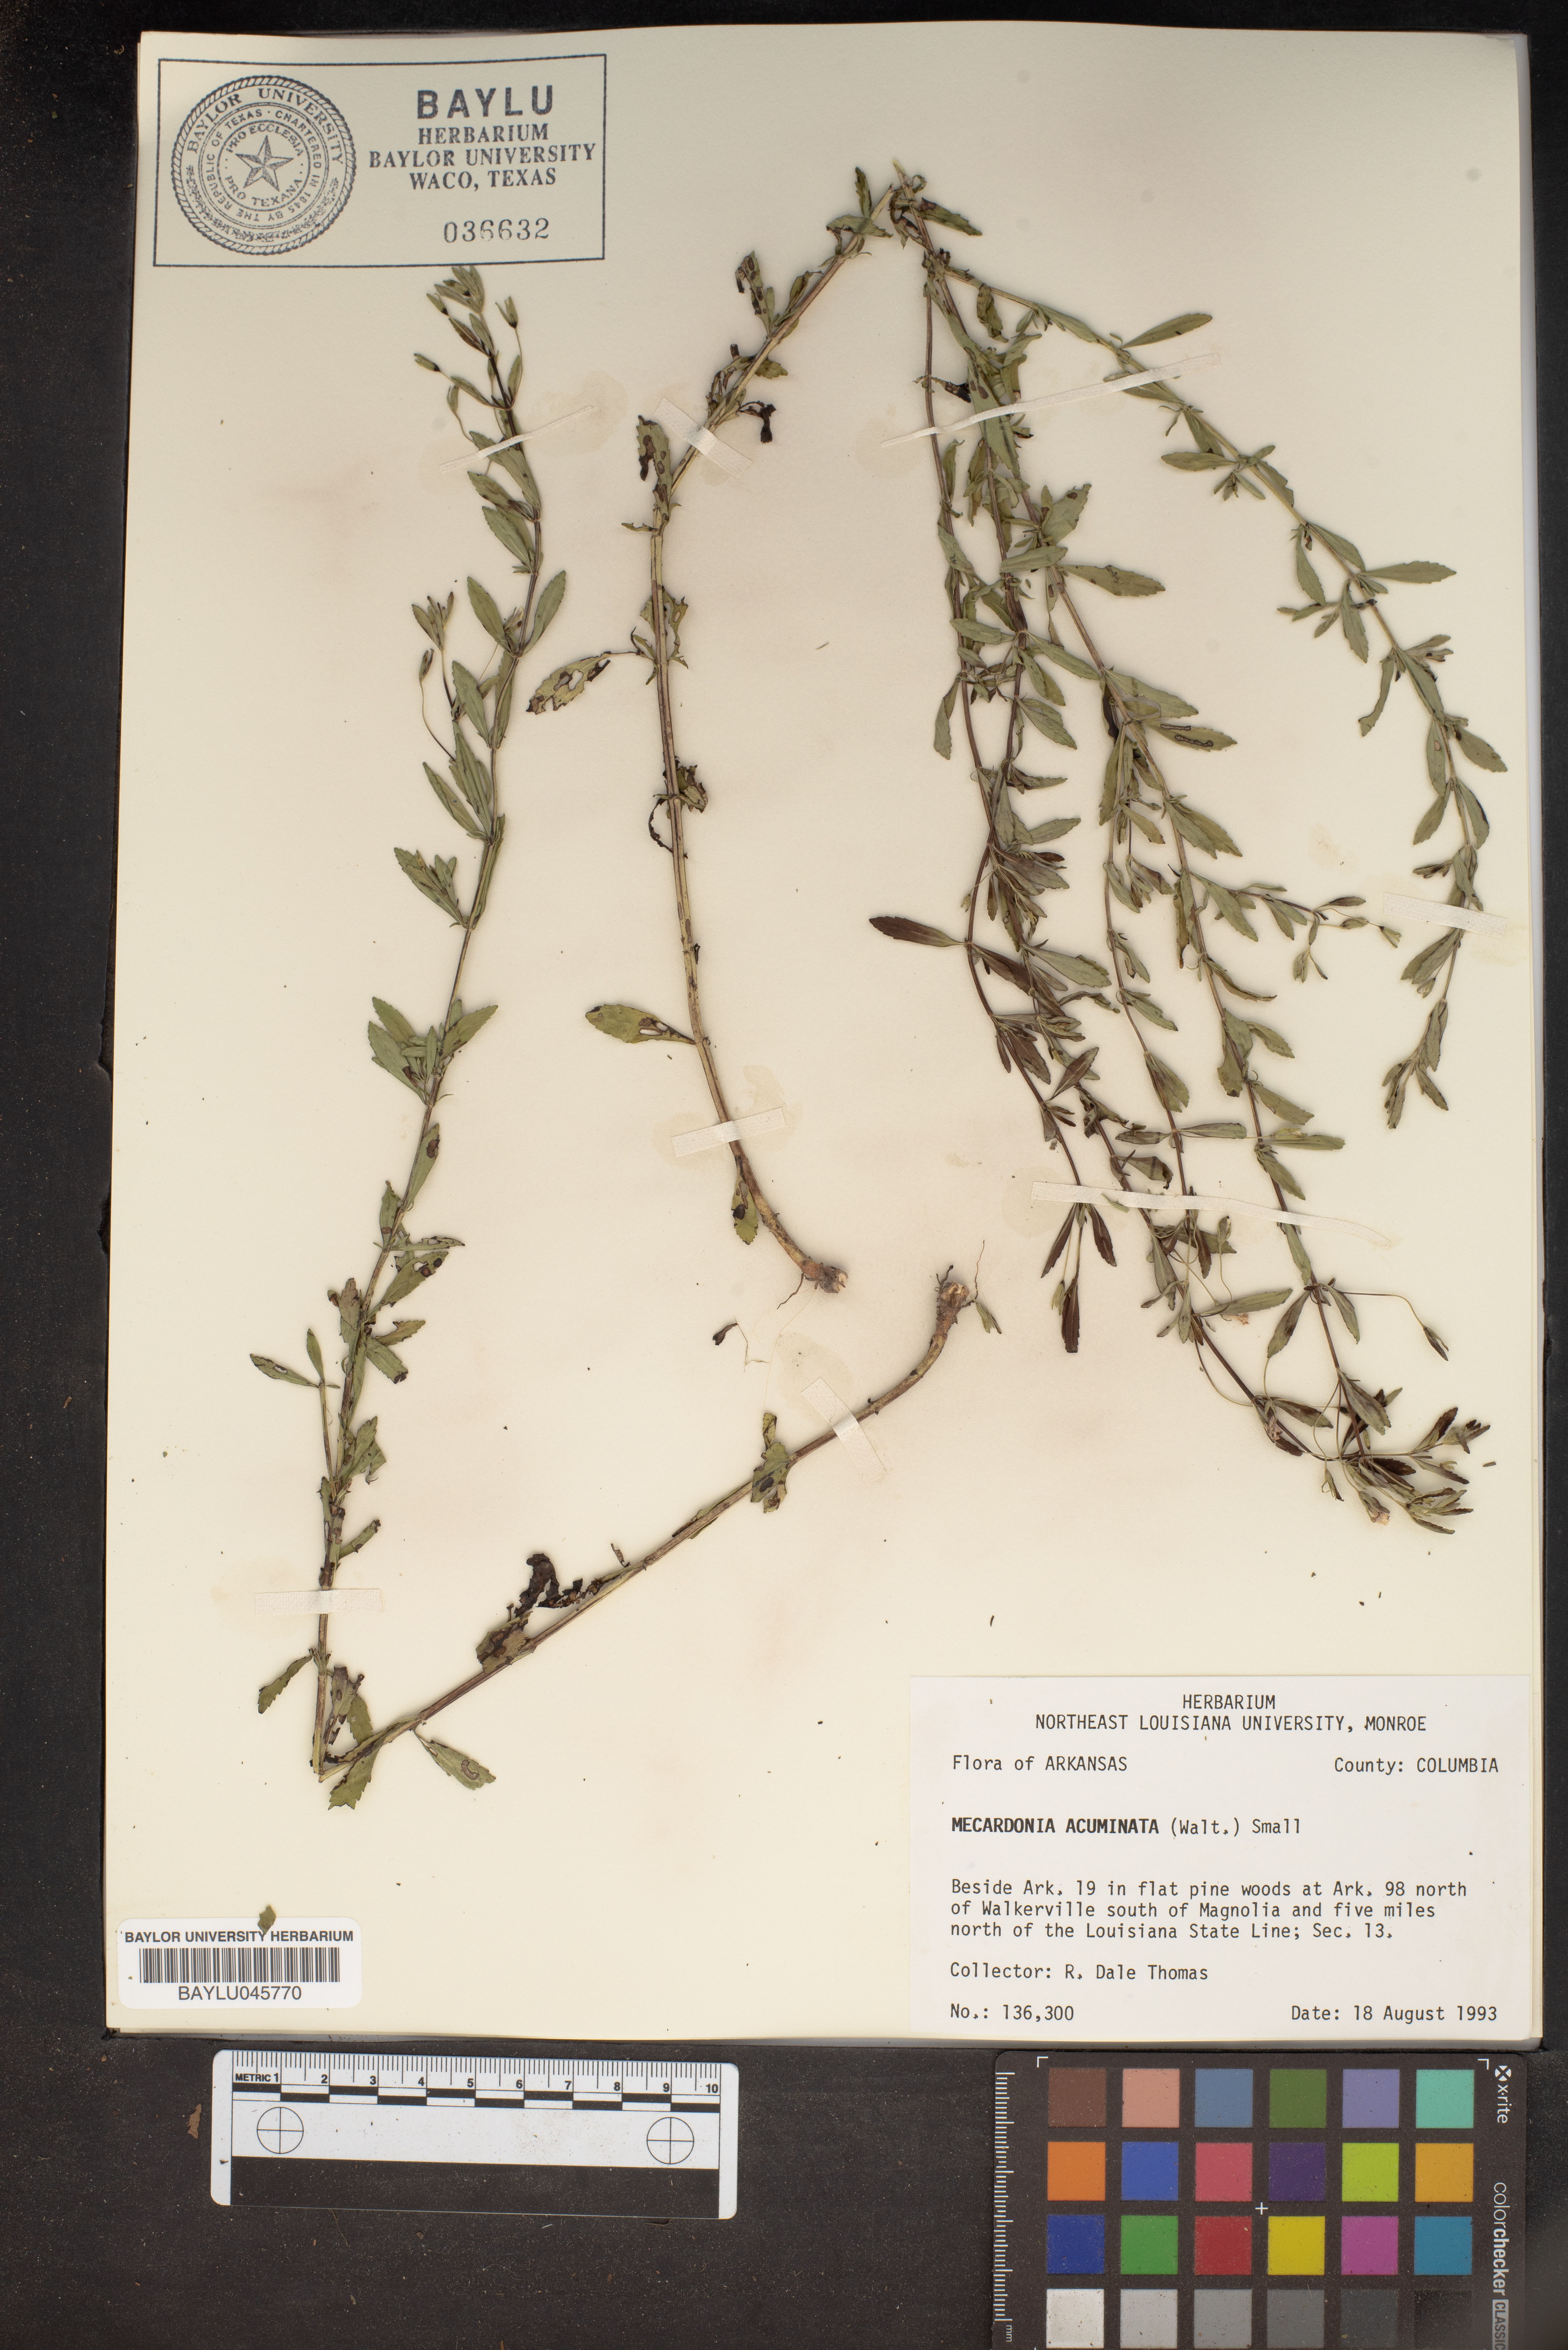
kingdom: Plantae
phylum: Tracheophyta
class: Magnoliopsida
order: Lamiales
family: Plantaginaceae
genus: Mecardonia
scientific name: Mecardonia acuminata
